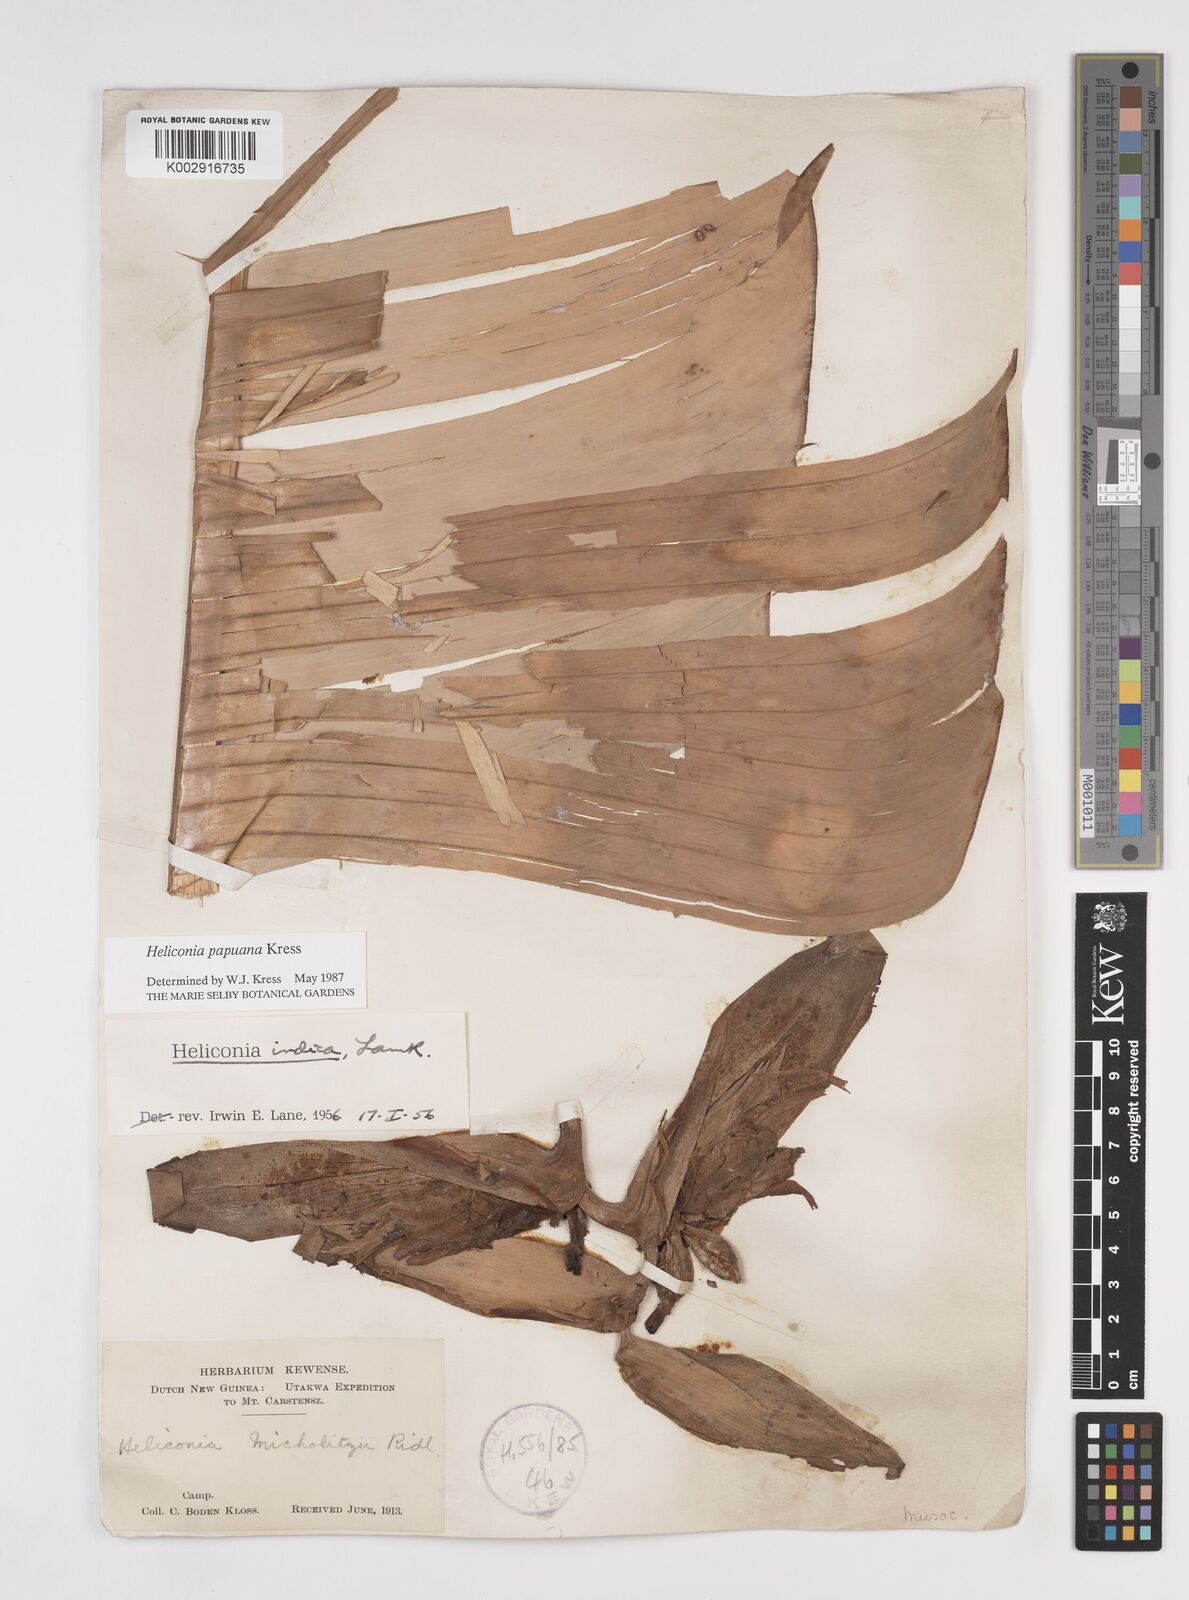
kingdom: Plantae
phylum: Tracheophyta
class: Liliopsida
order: Zingiberales
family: Heliconiaceae
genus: Heliconia
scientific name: Heliconia papuana
